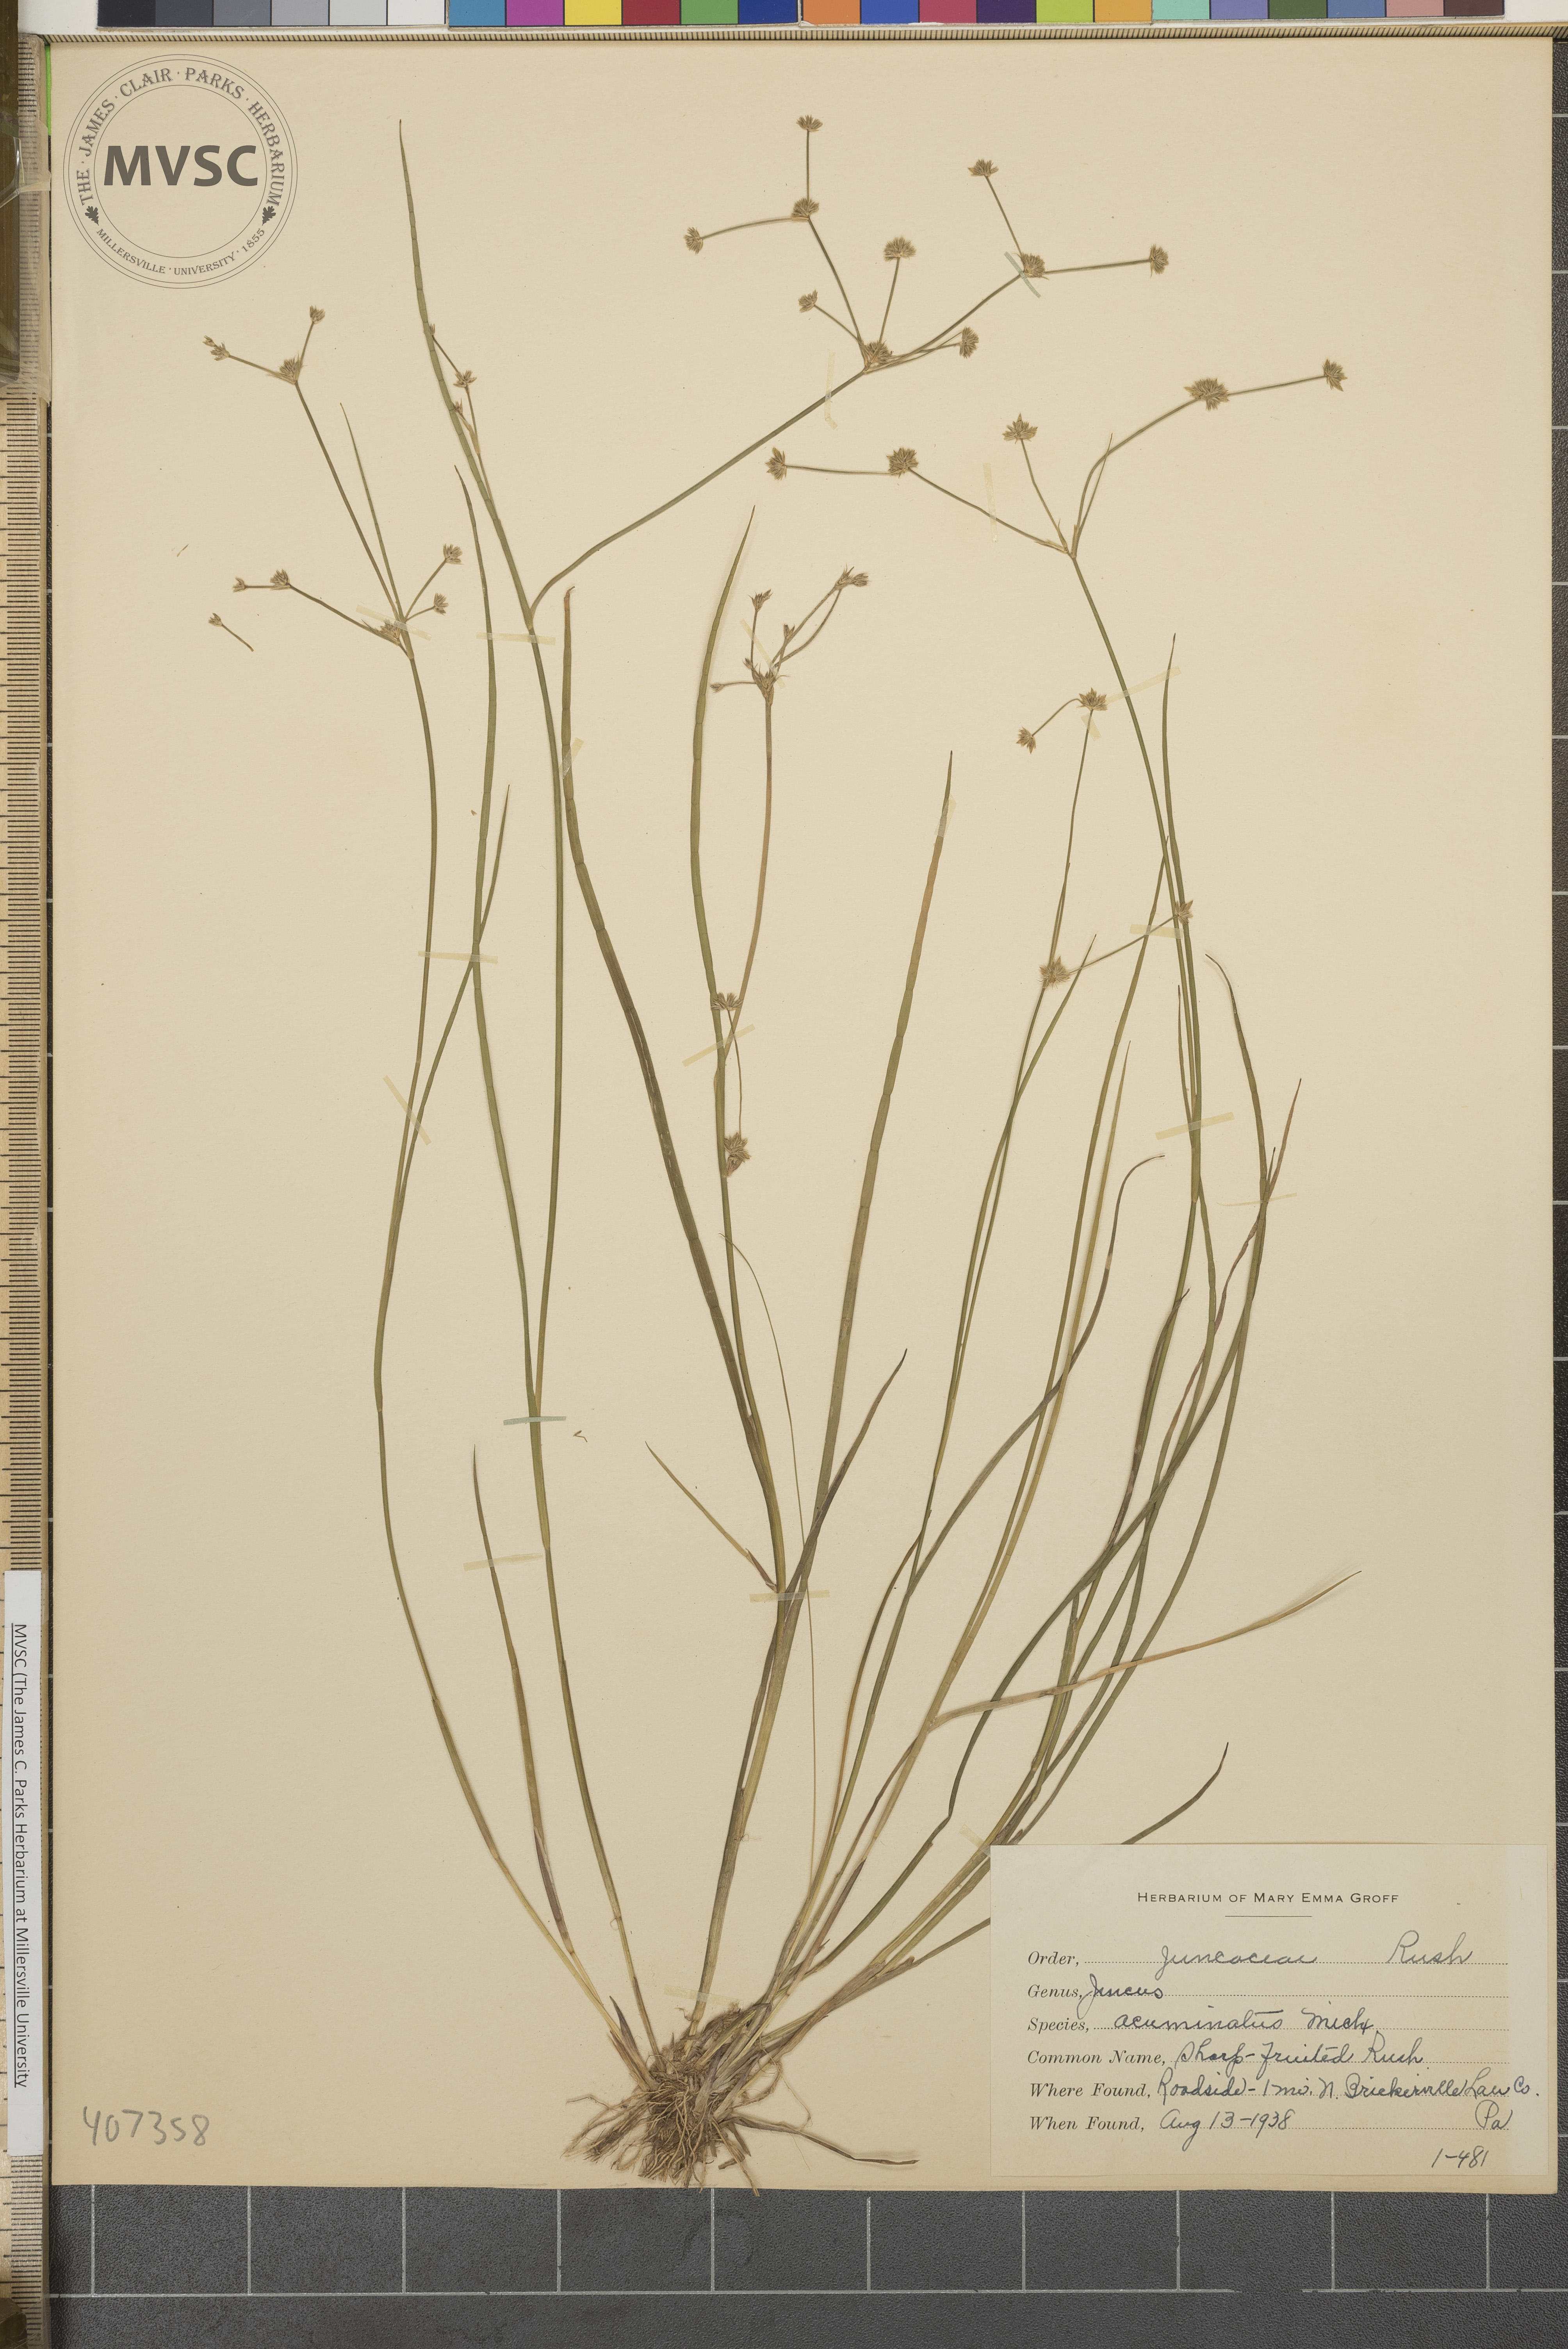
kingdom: Plantae
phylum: Tracheophyta
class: Liliopsida
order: Poales
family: Juncaceae
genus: Juncus
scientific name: Juncus acuminatus
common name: Sharp-fruited Rush
